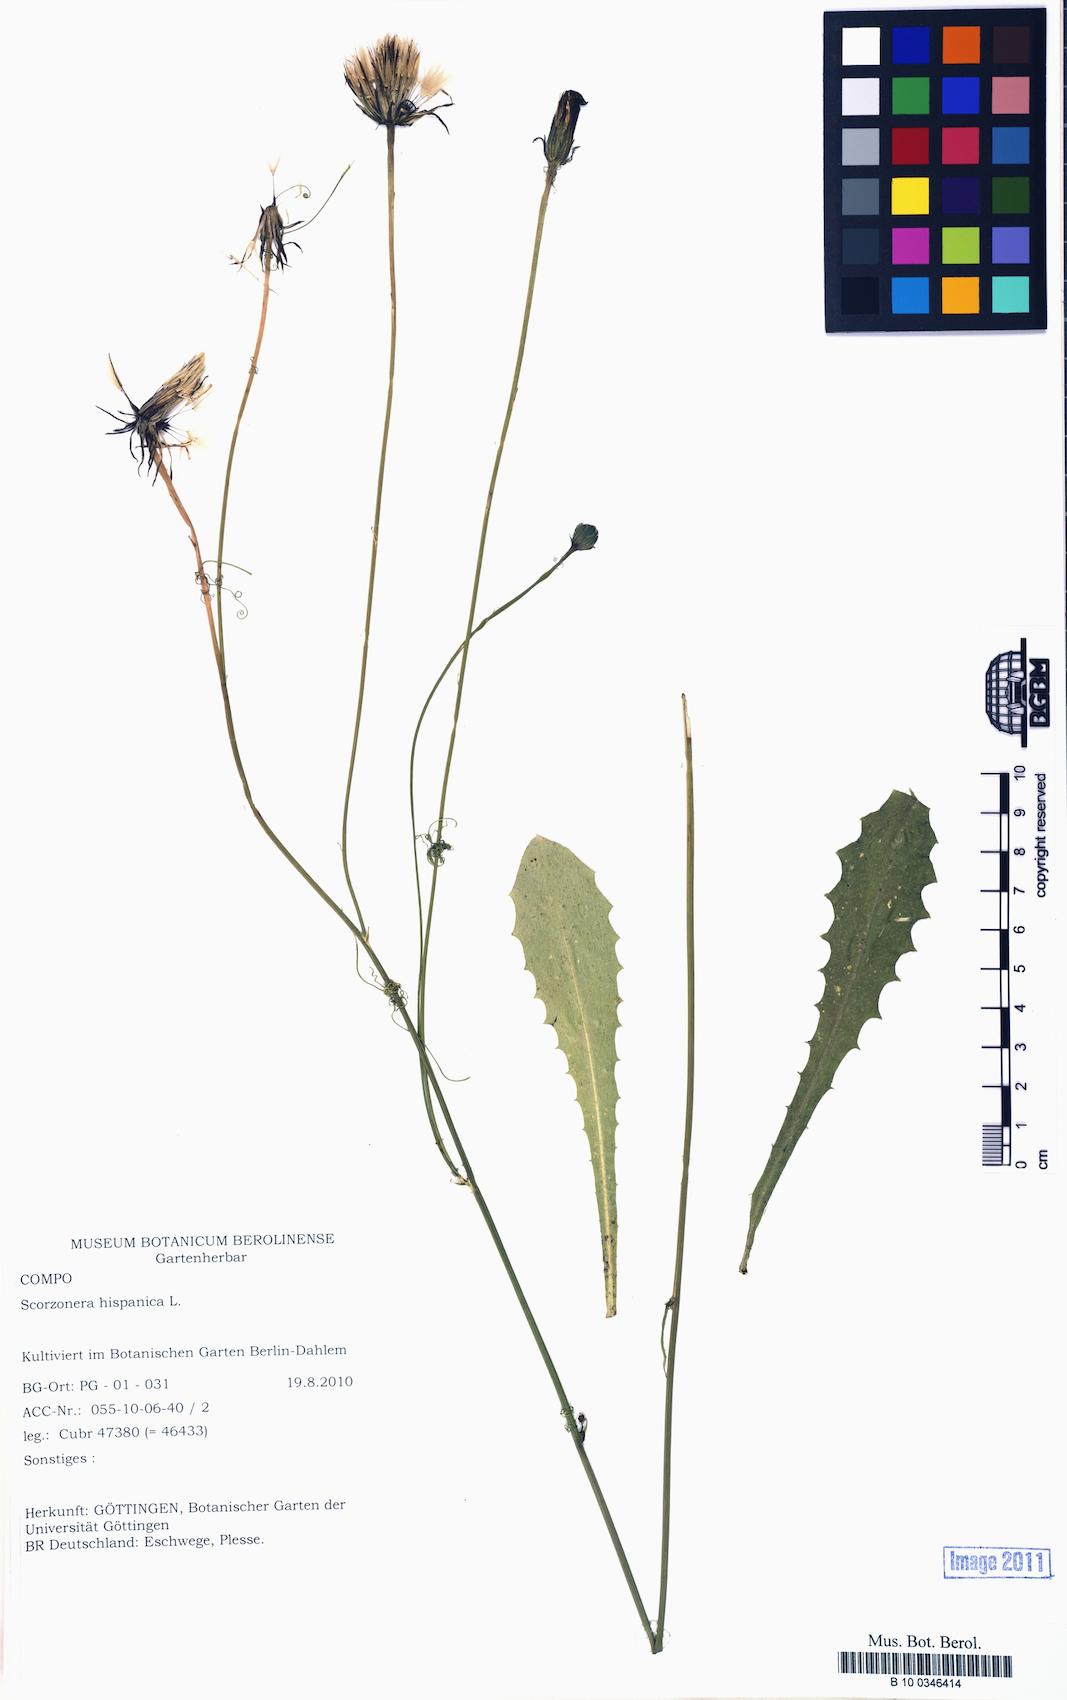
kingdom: Plantae
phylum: Tracheophyta
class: Magnoliopsida
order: Asterales
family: Asteraceae
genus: Pseudopodospermum
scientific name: Pseudopodospermum hispanicum
